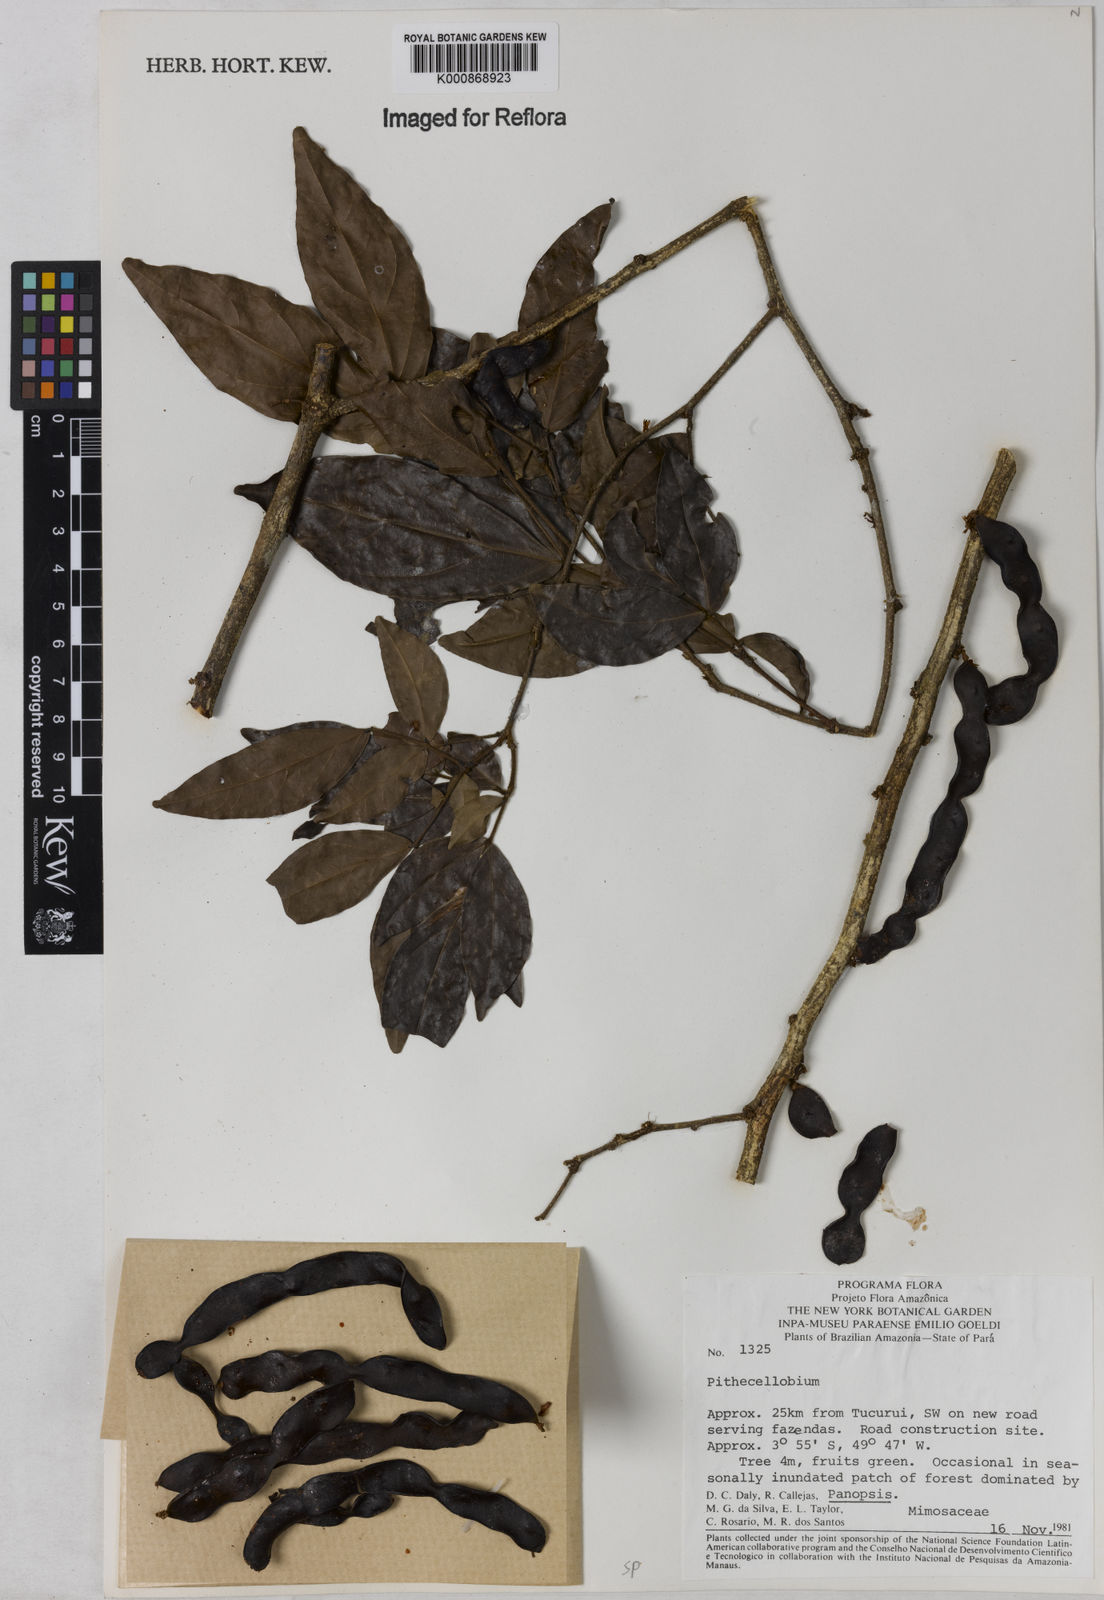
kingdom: Plantae
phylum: Tracheophyta
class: Magnoliopsida
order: Fabales
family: Fabaceae
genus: Zygia
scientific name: Zygia
